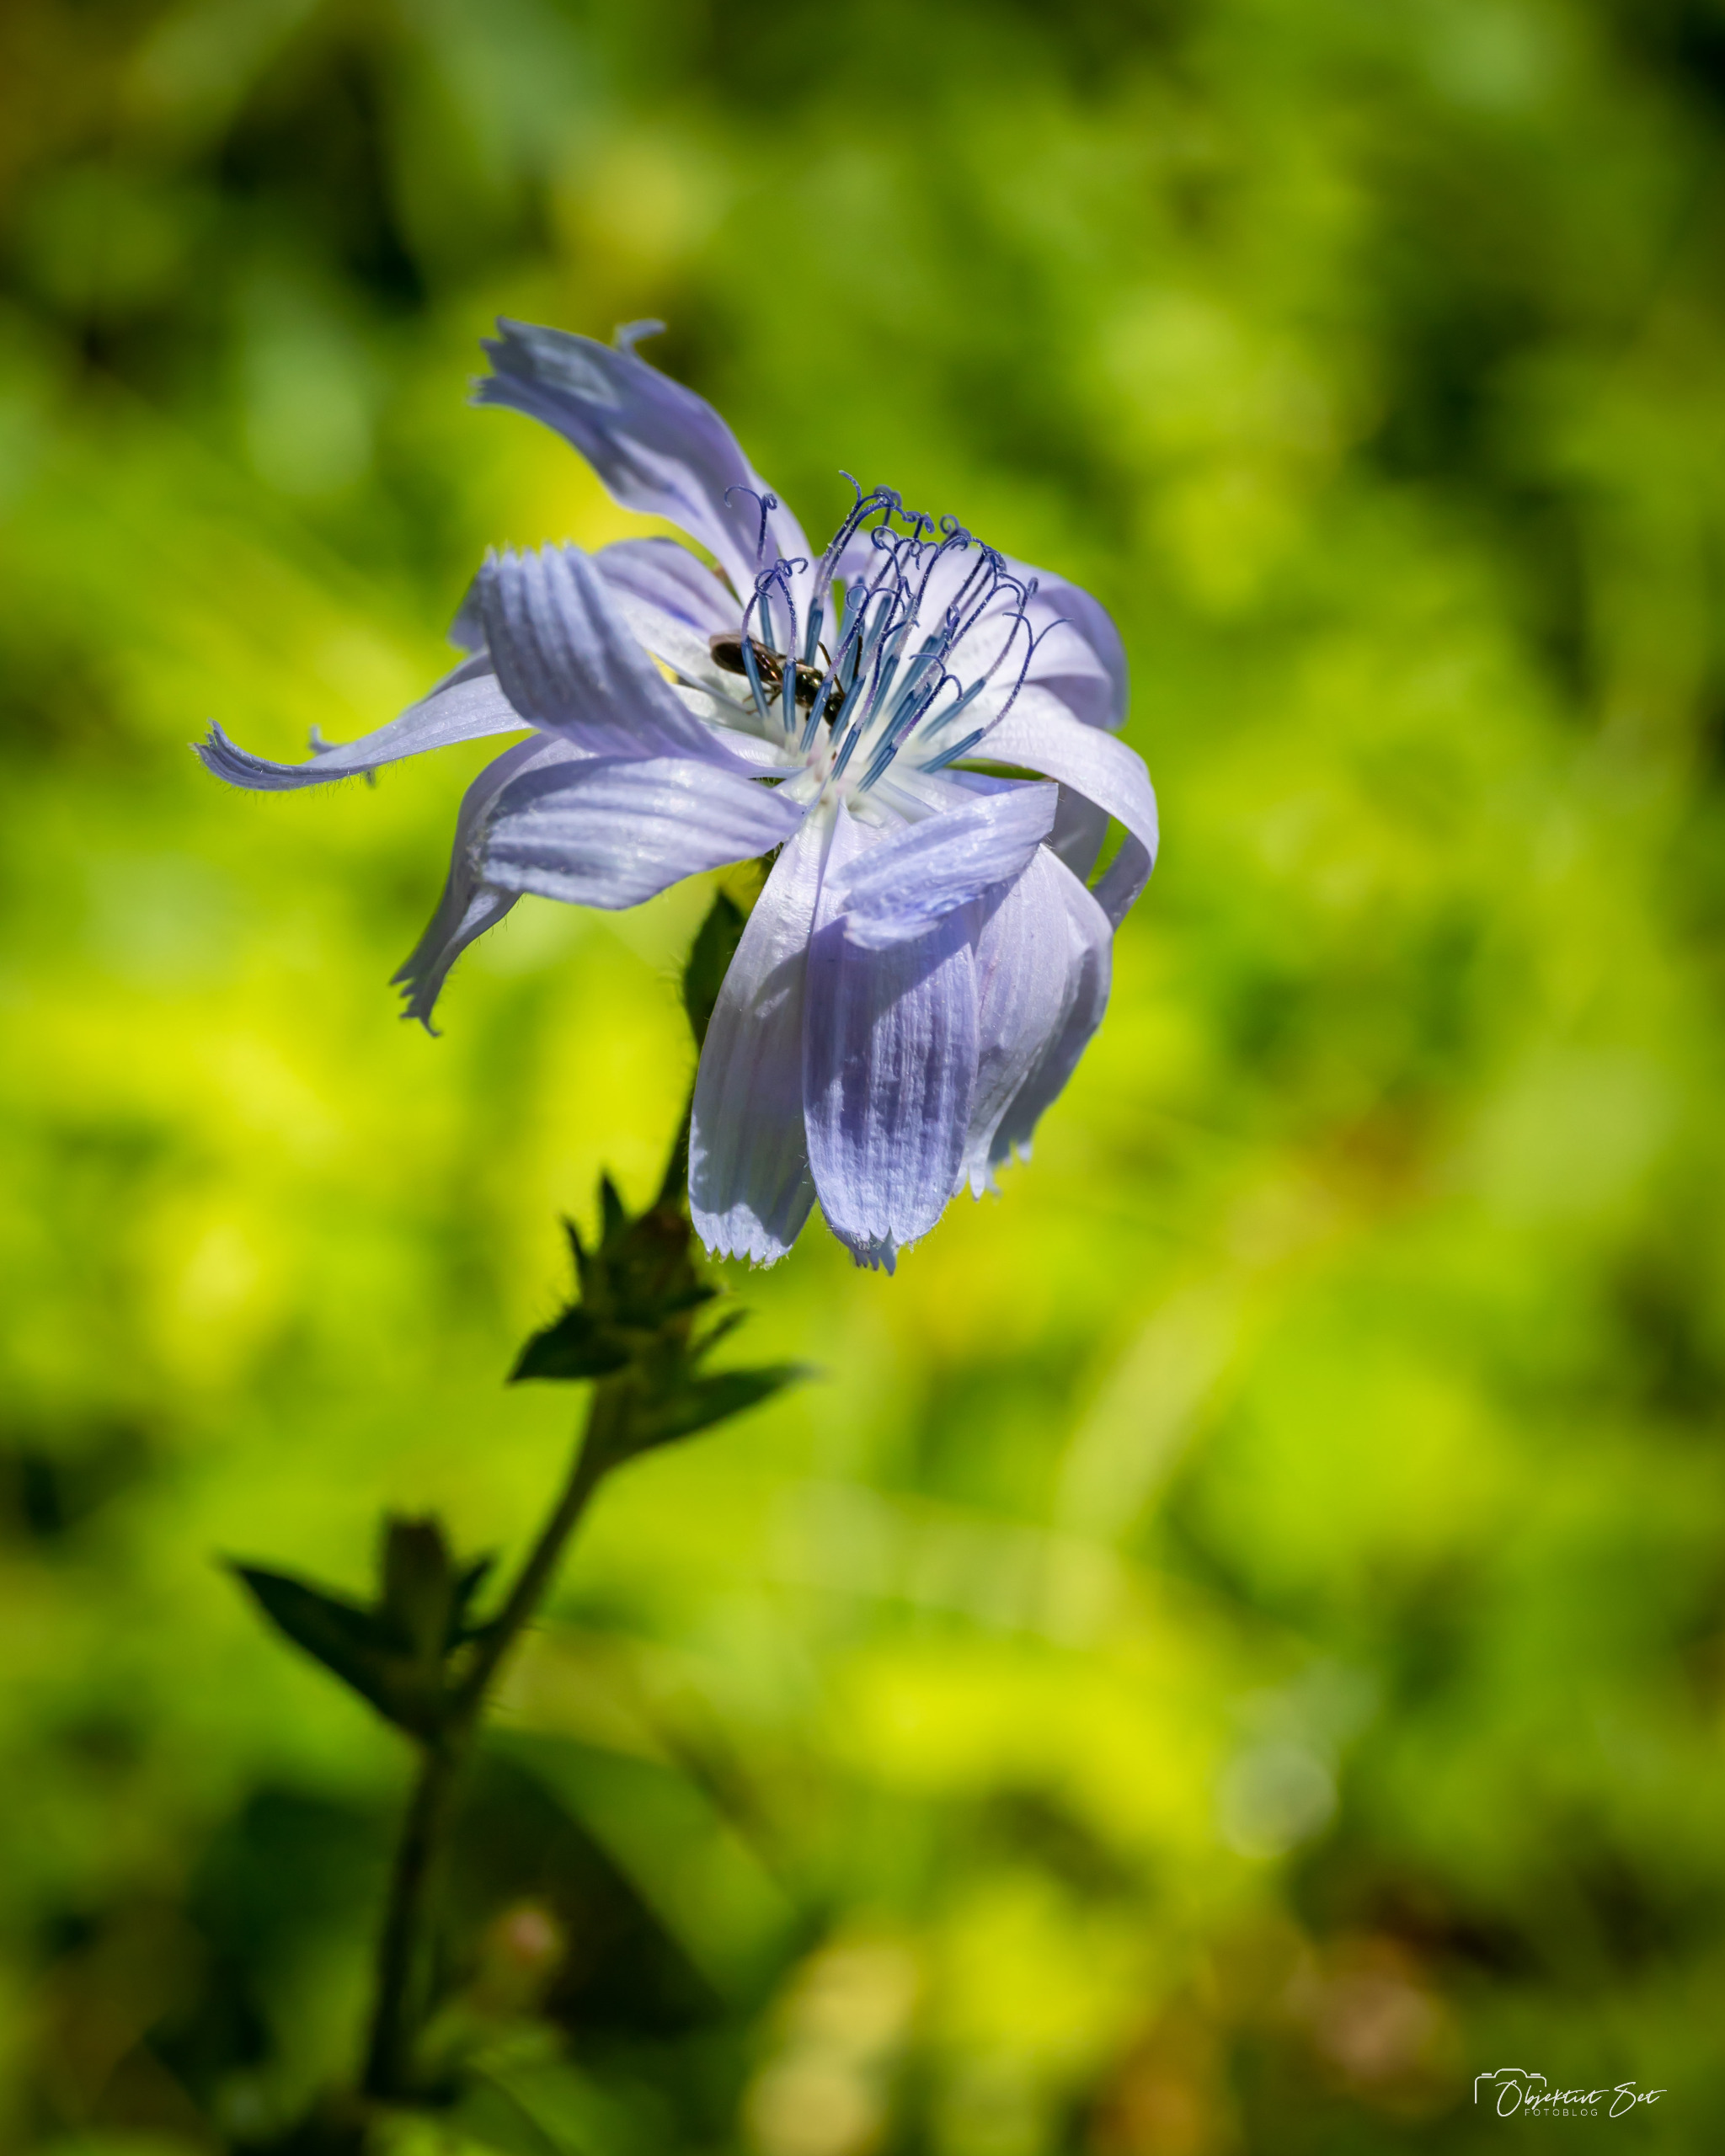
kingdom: Plantae
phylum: Tracheophyta
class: Magnoliopsida
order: Asterales
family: Asteraceae
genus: Cichorium
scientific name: Cichorium intybus
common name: Cikorie
